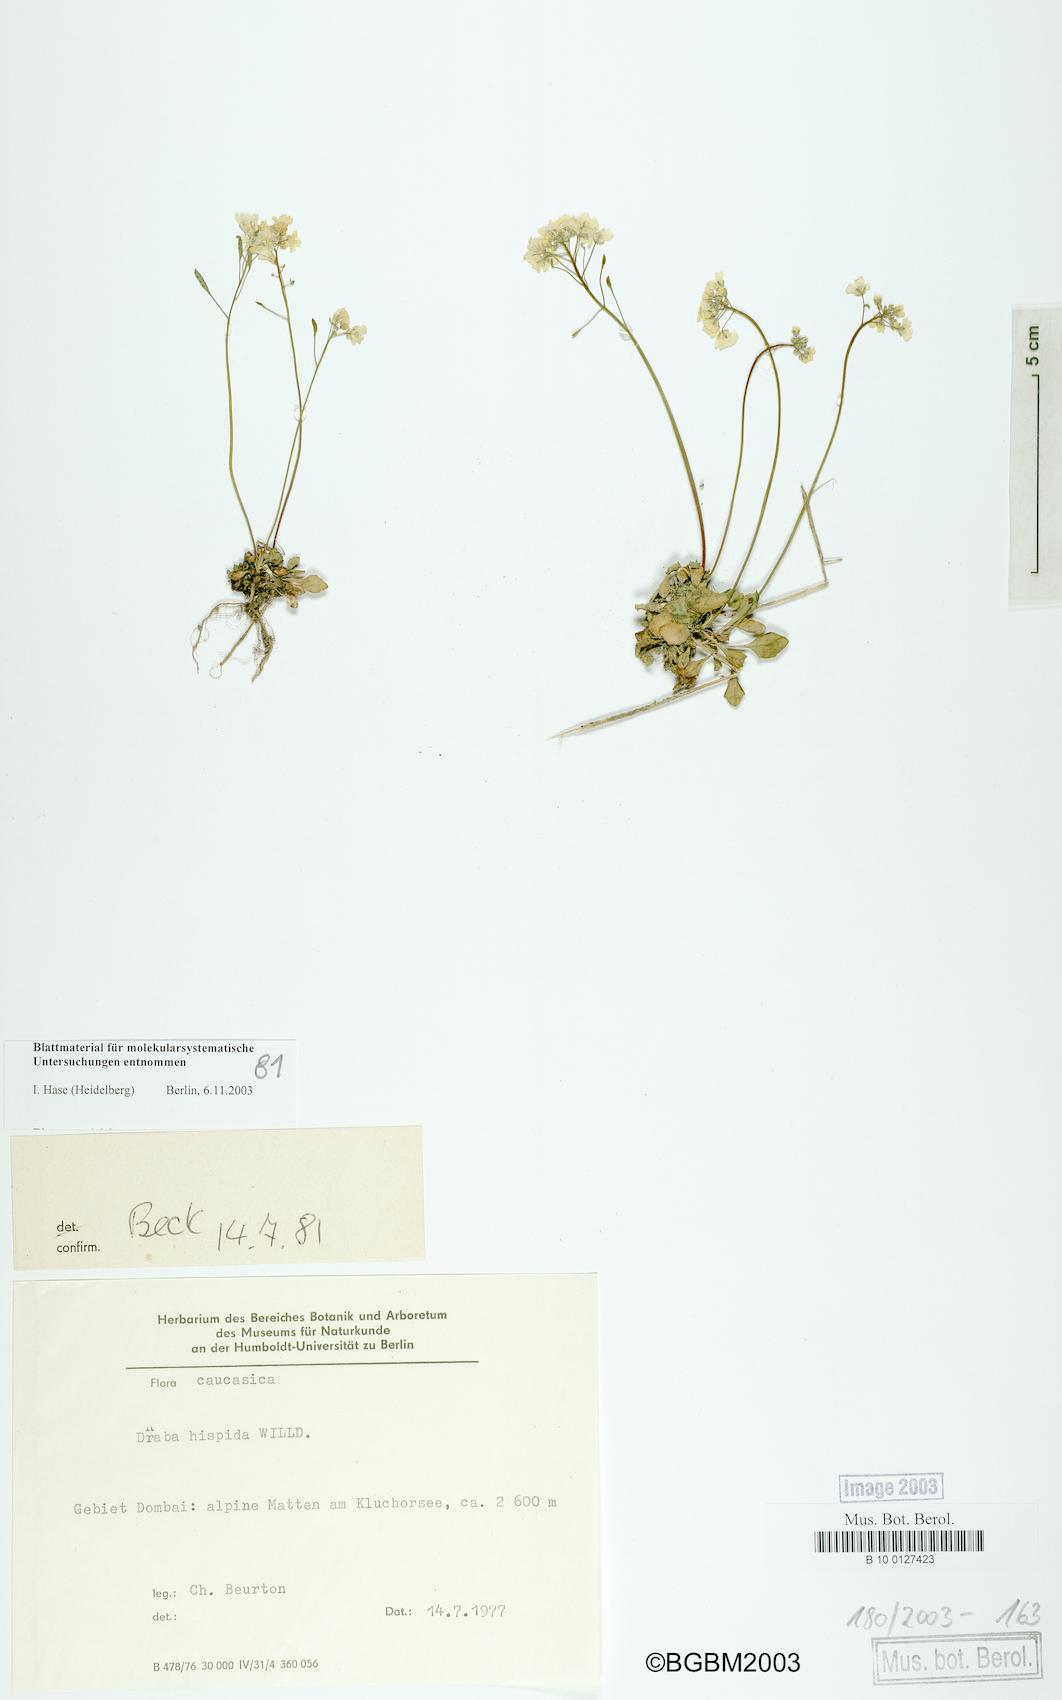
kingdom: Plantae
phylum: Tracheophyta
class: Magnoliopsida
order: Brassicales
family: Brassicaceae
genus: Draba
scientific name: Draba hispida
